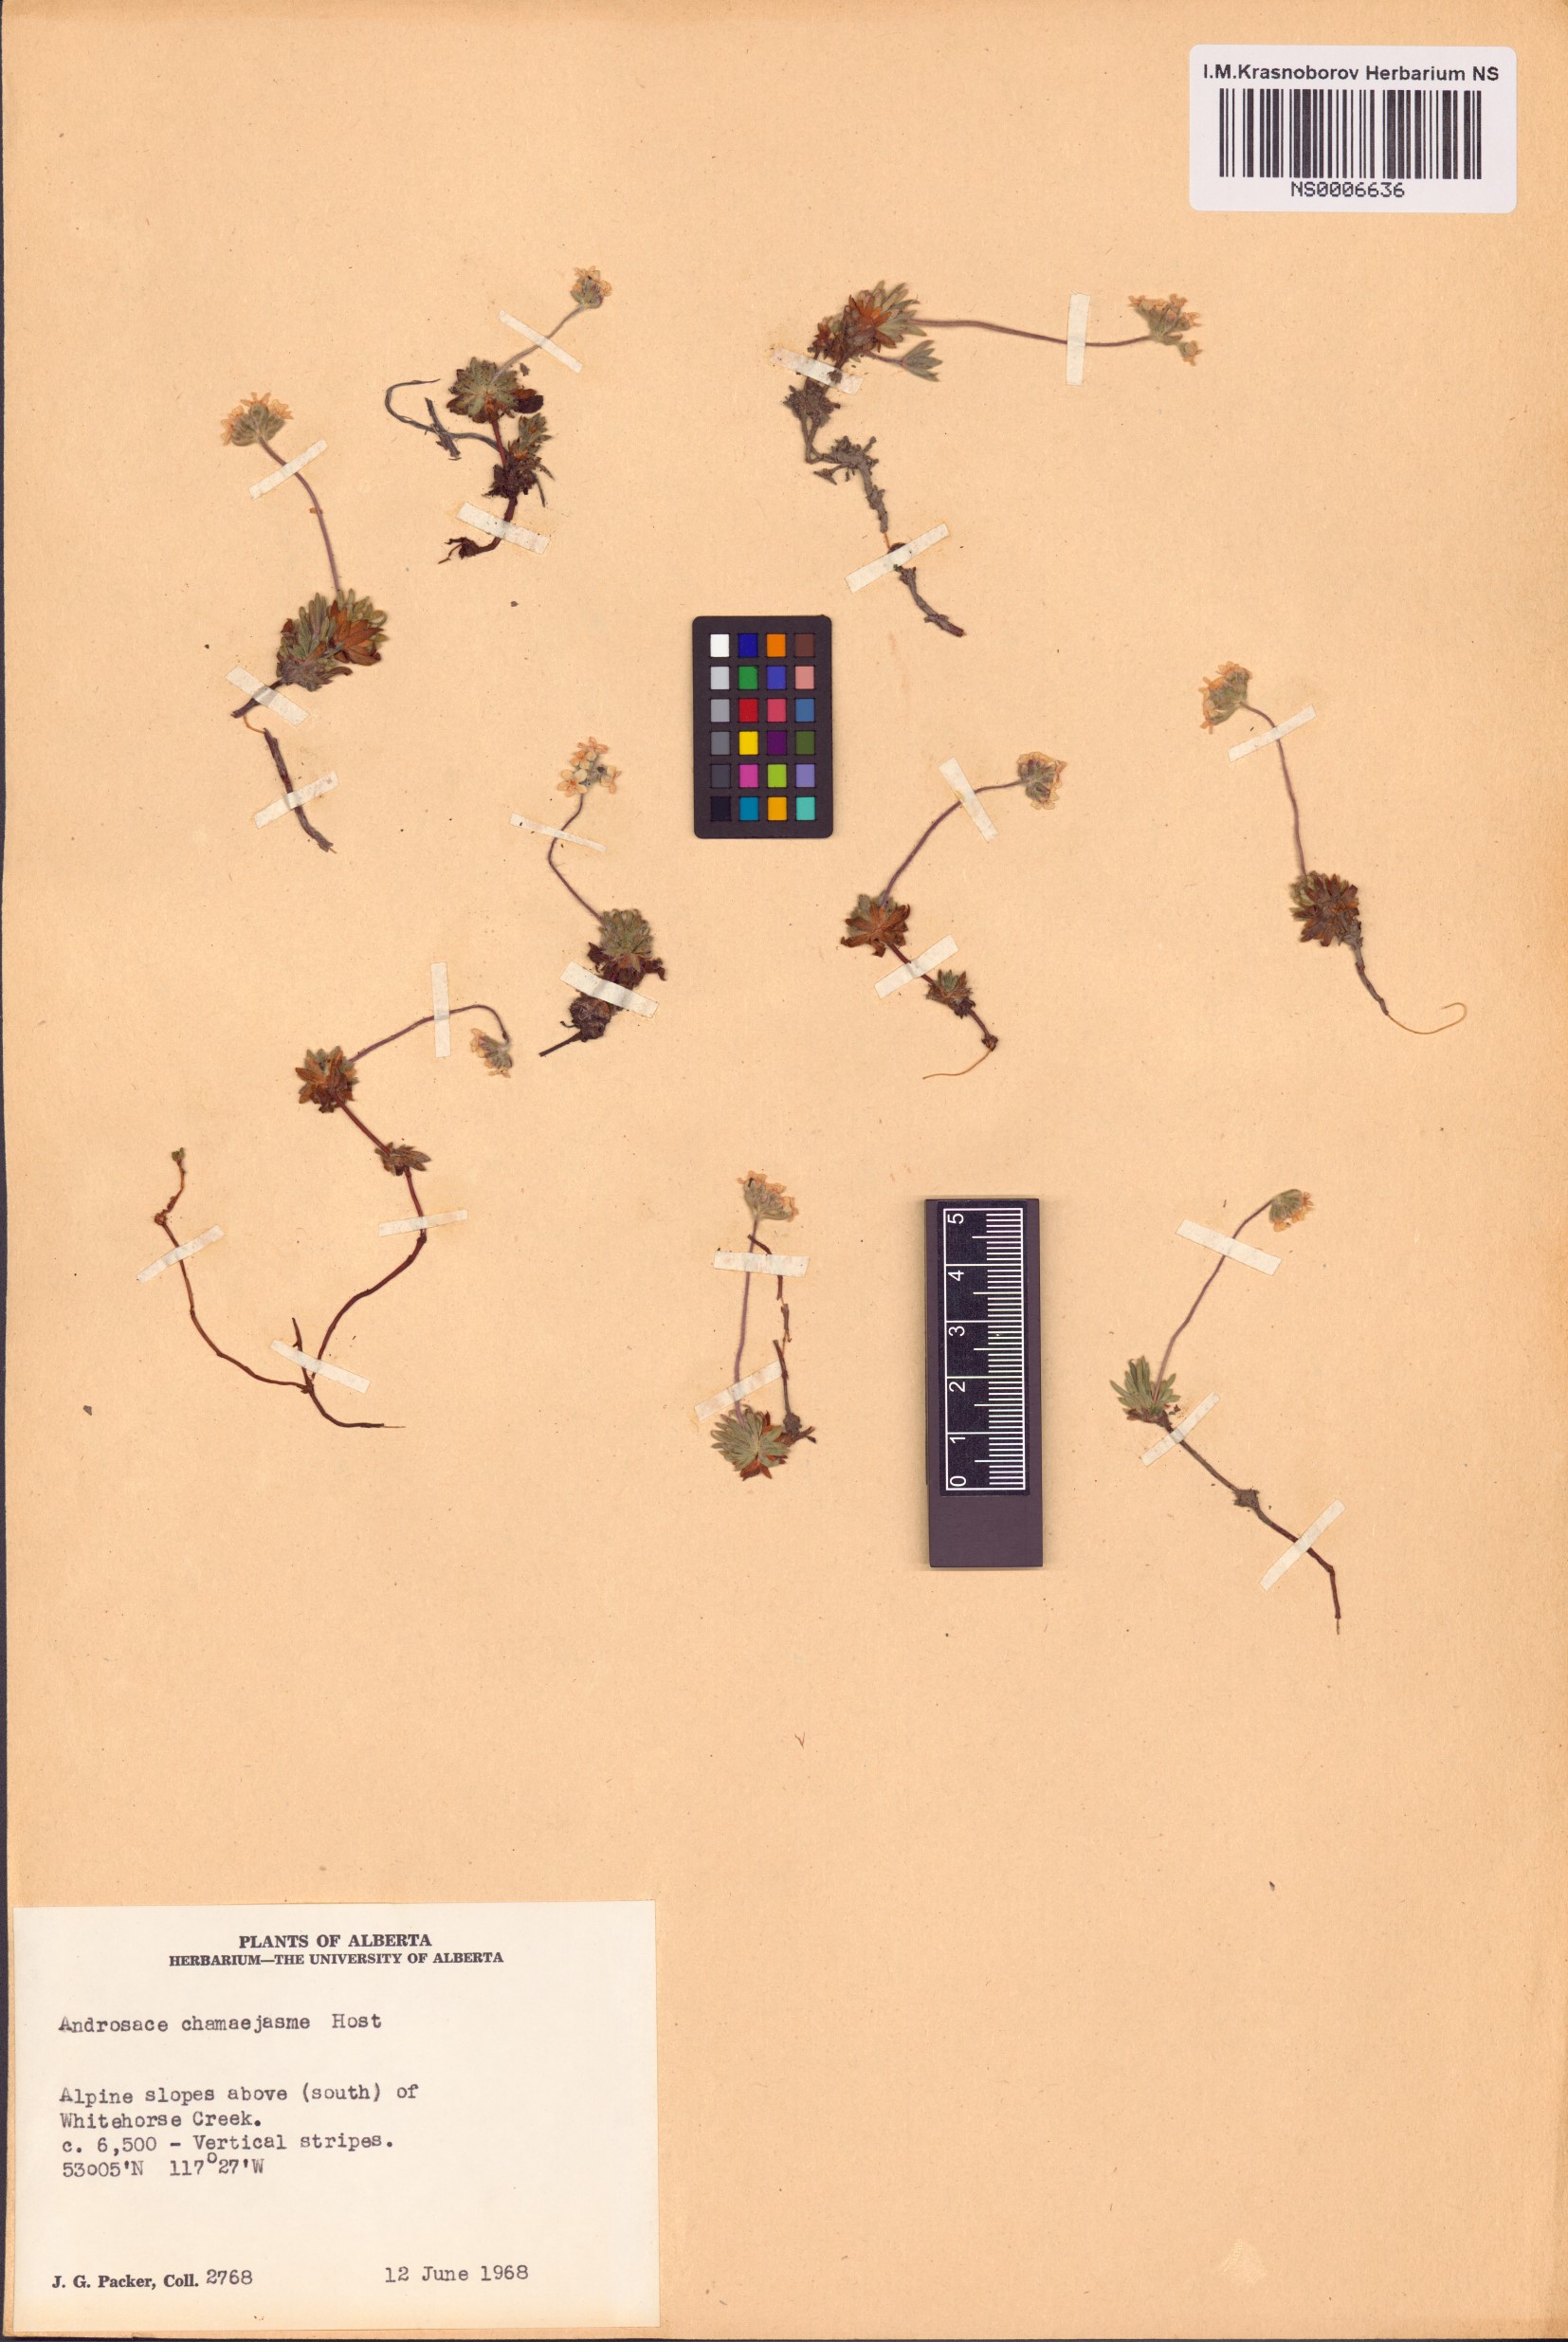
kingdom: Plantae
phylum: Tracheophyta
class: Magnoliopsida
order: Ericales
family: Primulaceae
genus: Androsace
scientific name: Androsace chamaejasme
